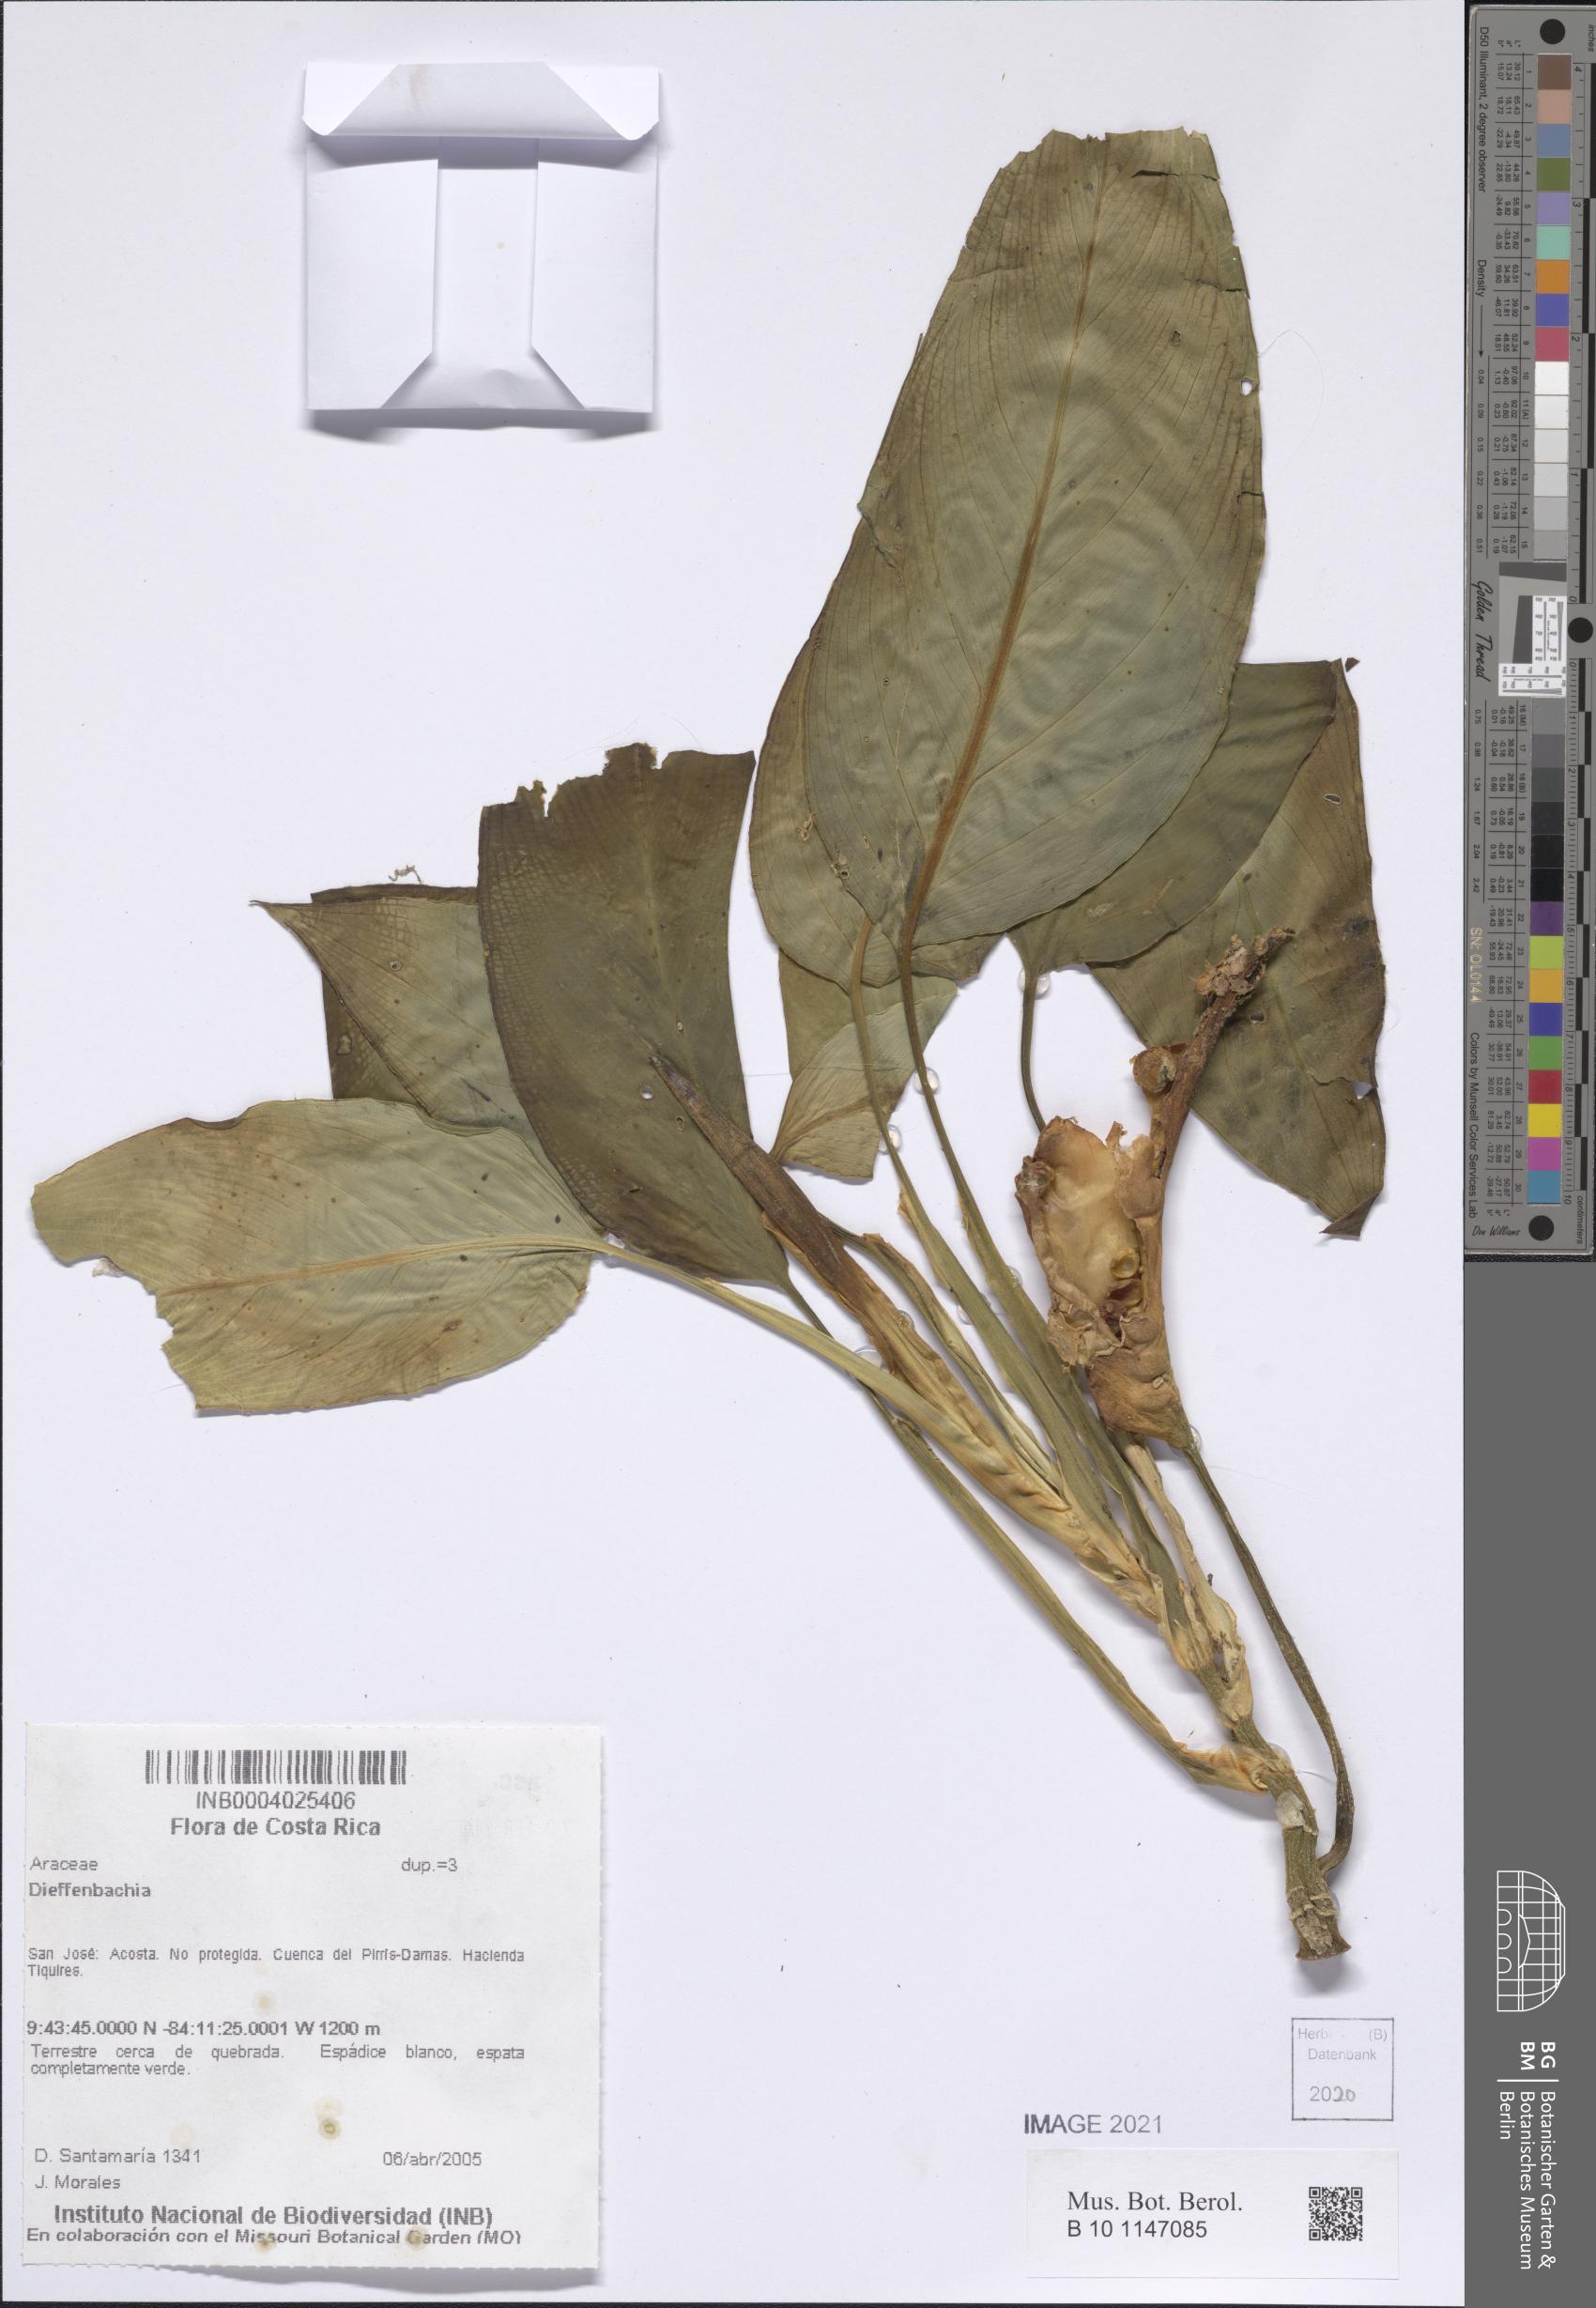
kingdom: Plantae
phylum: Tracheophyta
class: Liliopsida
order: Alismatales
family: Araceae
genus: Dieffenbachia
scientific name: Dieffenbachia
